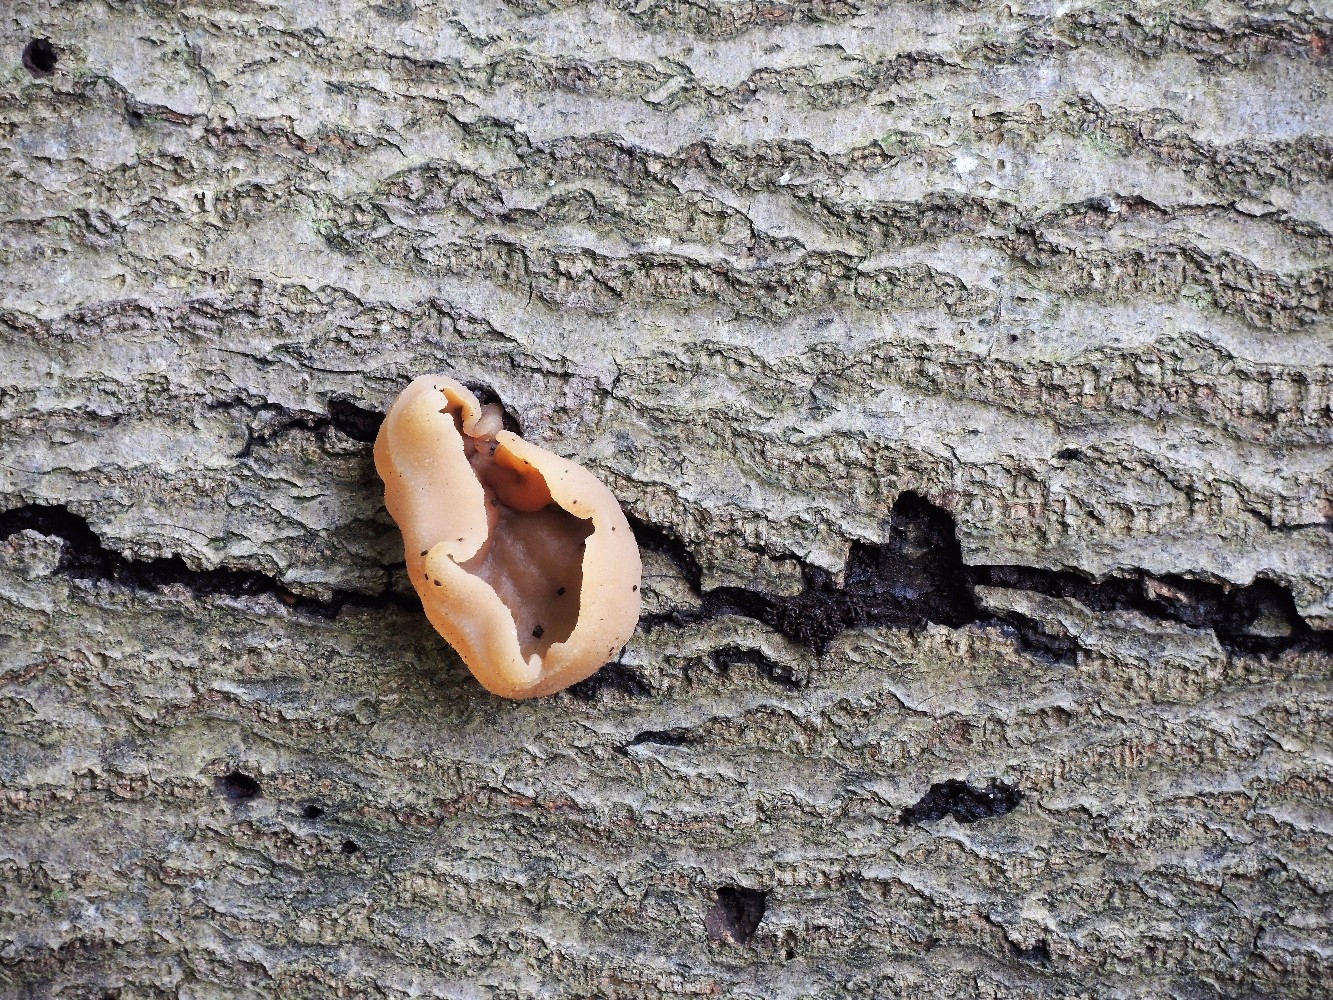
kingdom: Fungi
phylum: Ascomycota
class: Pezizomycetes
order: Pezizales
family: Pezizaceae
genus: Peziza
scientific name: Peziza varia
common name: Ved-bægersvamp
